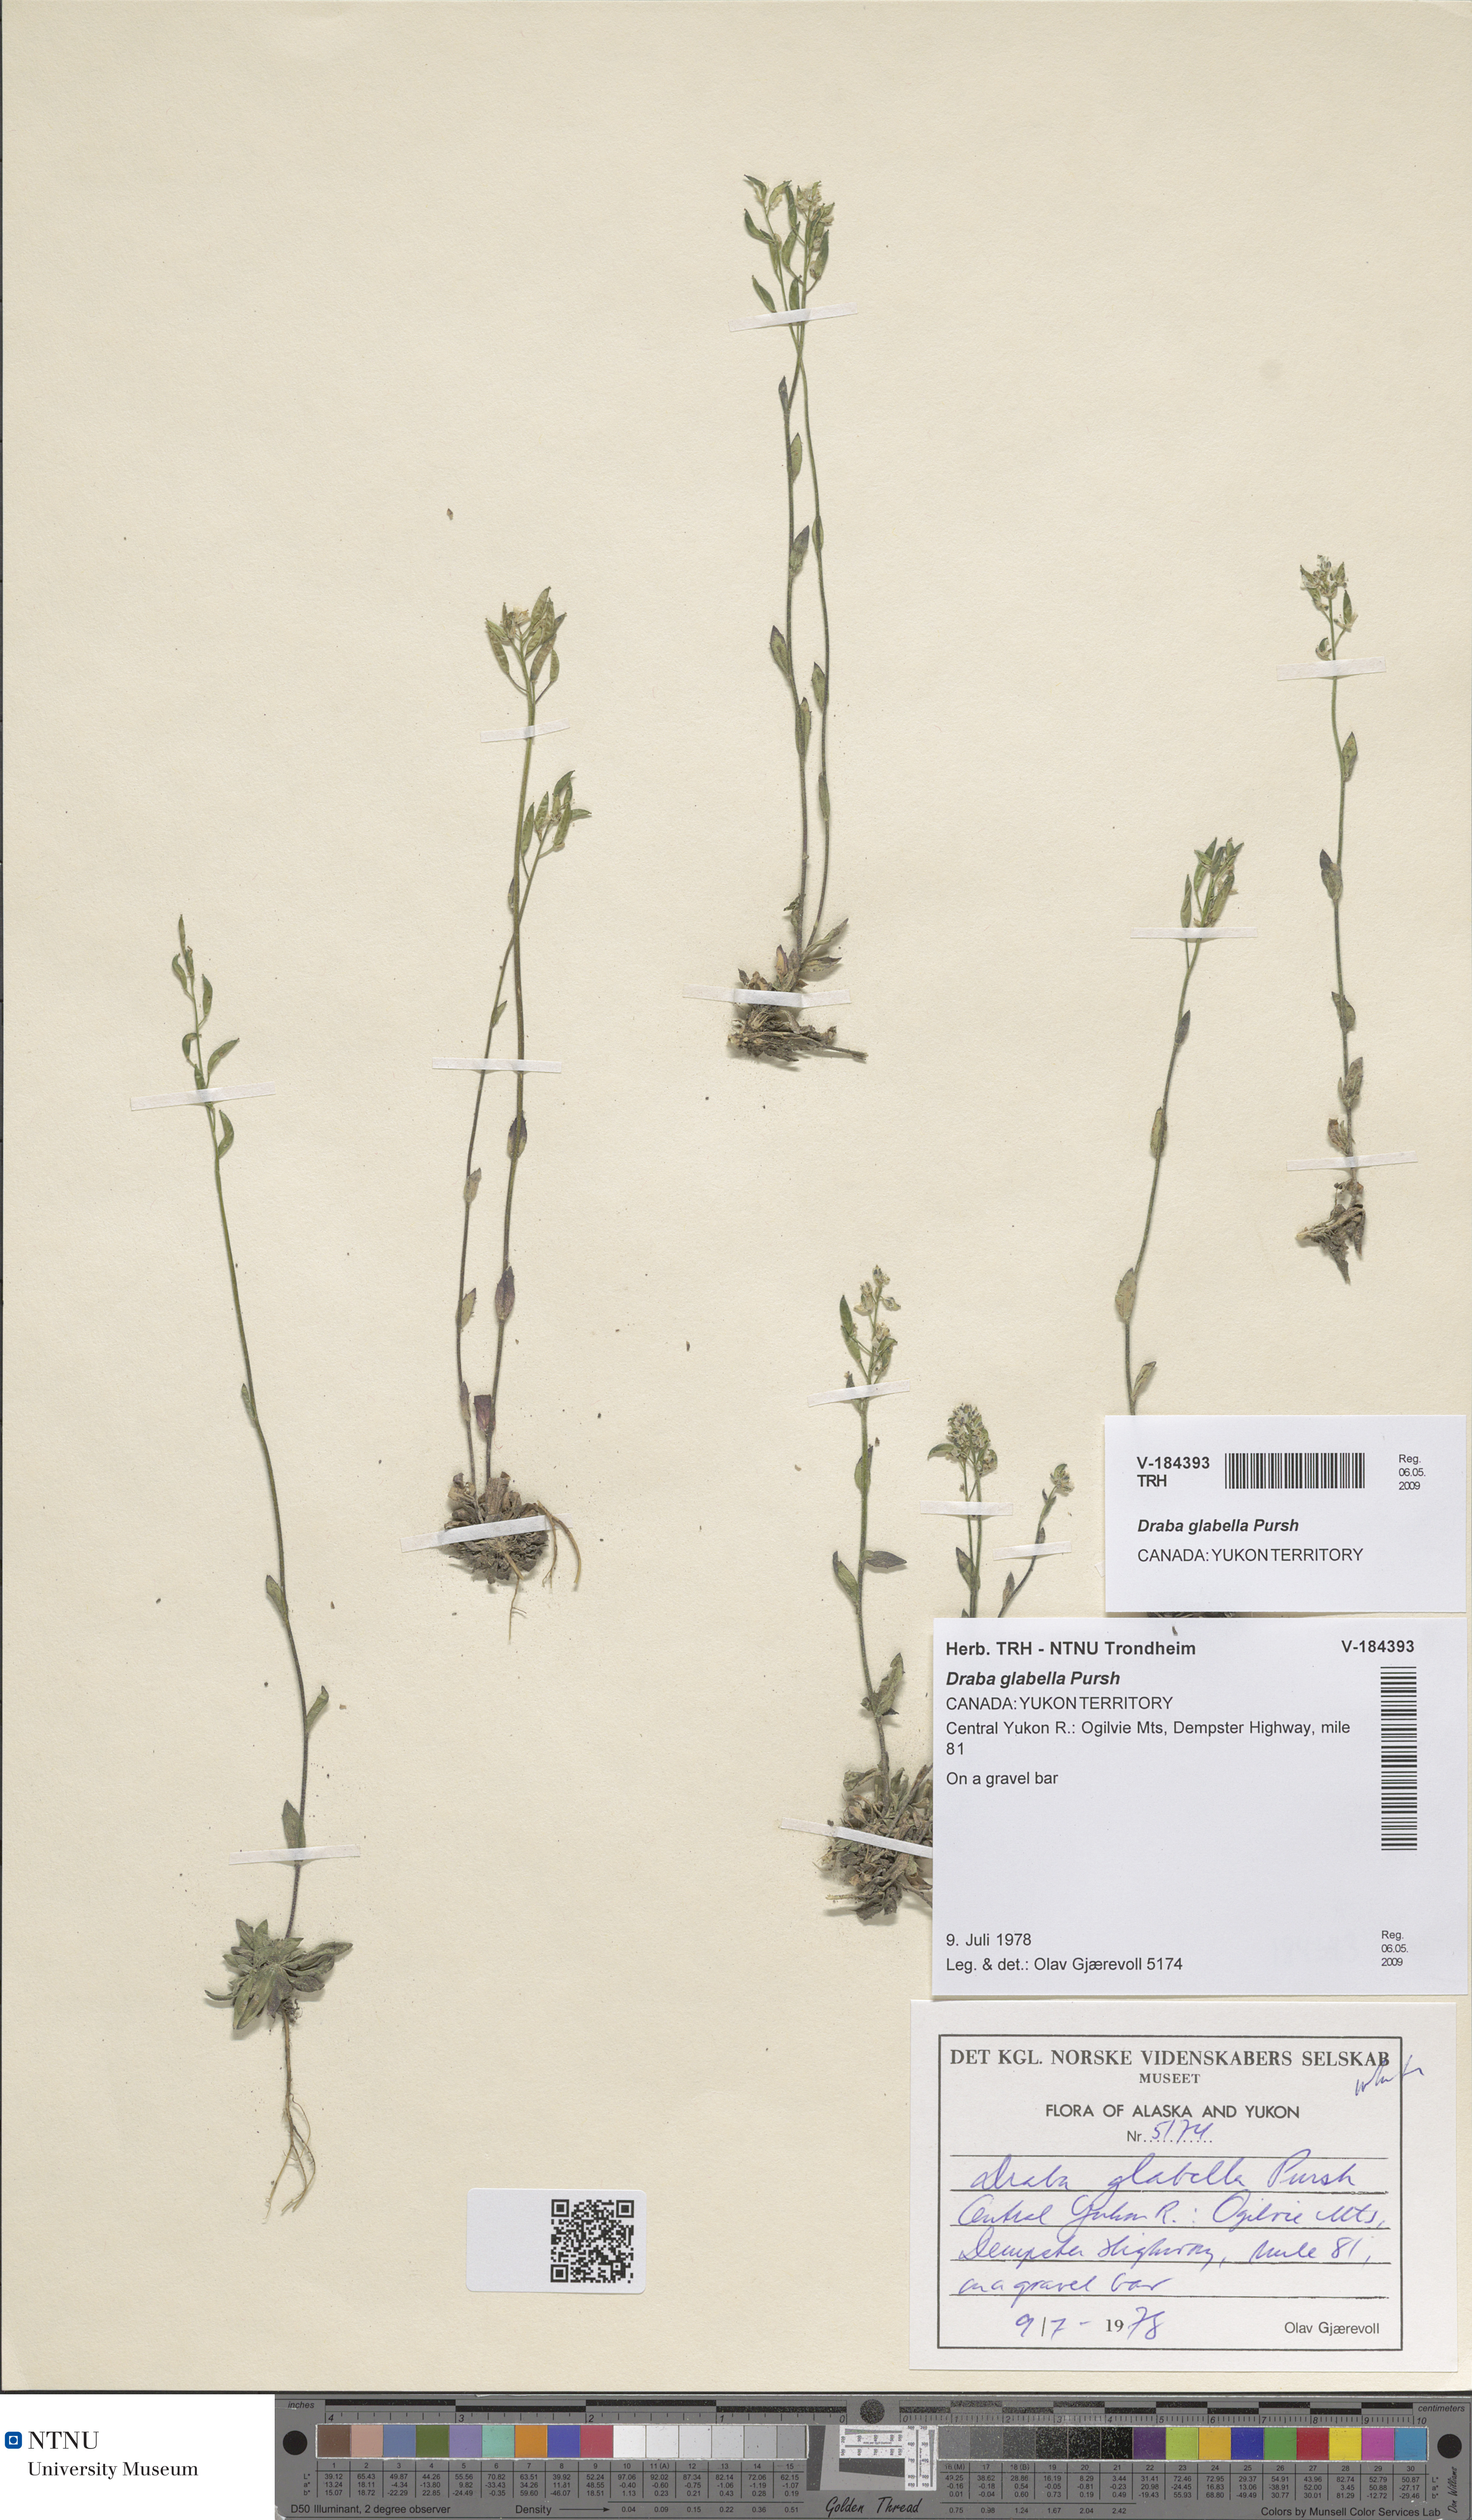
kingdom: Plantae
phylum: Tracheophyta
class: Magnoliopsida
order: Brassicales
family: Brassicaceae
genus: Draba
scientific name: Draba glabella
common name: Glaucous draba
